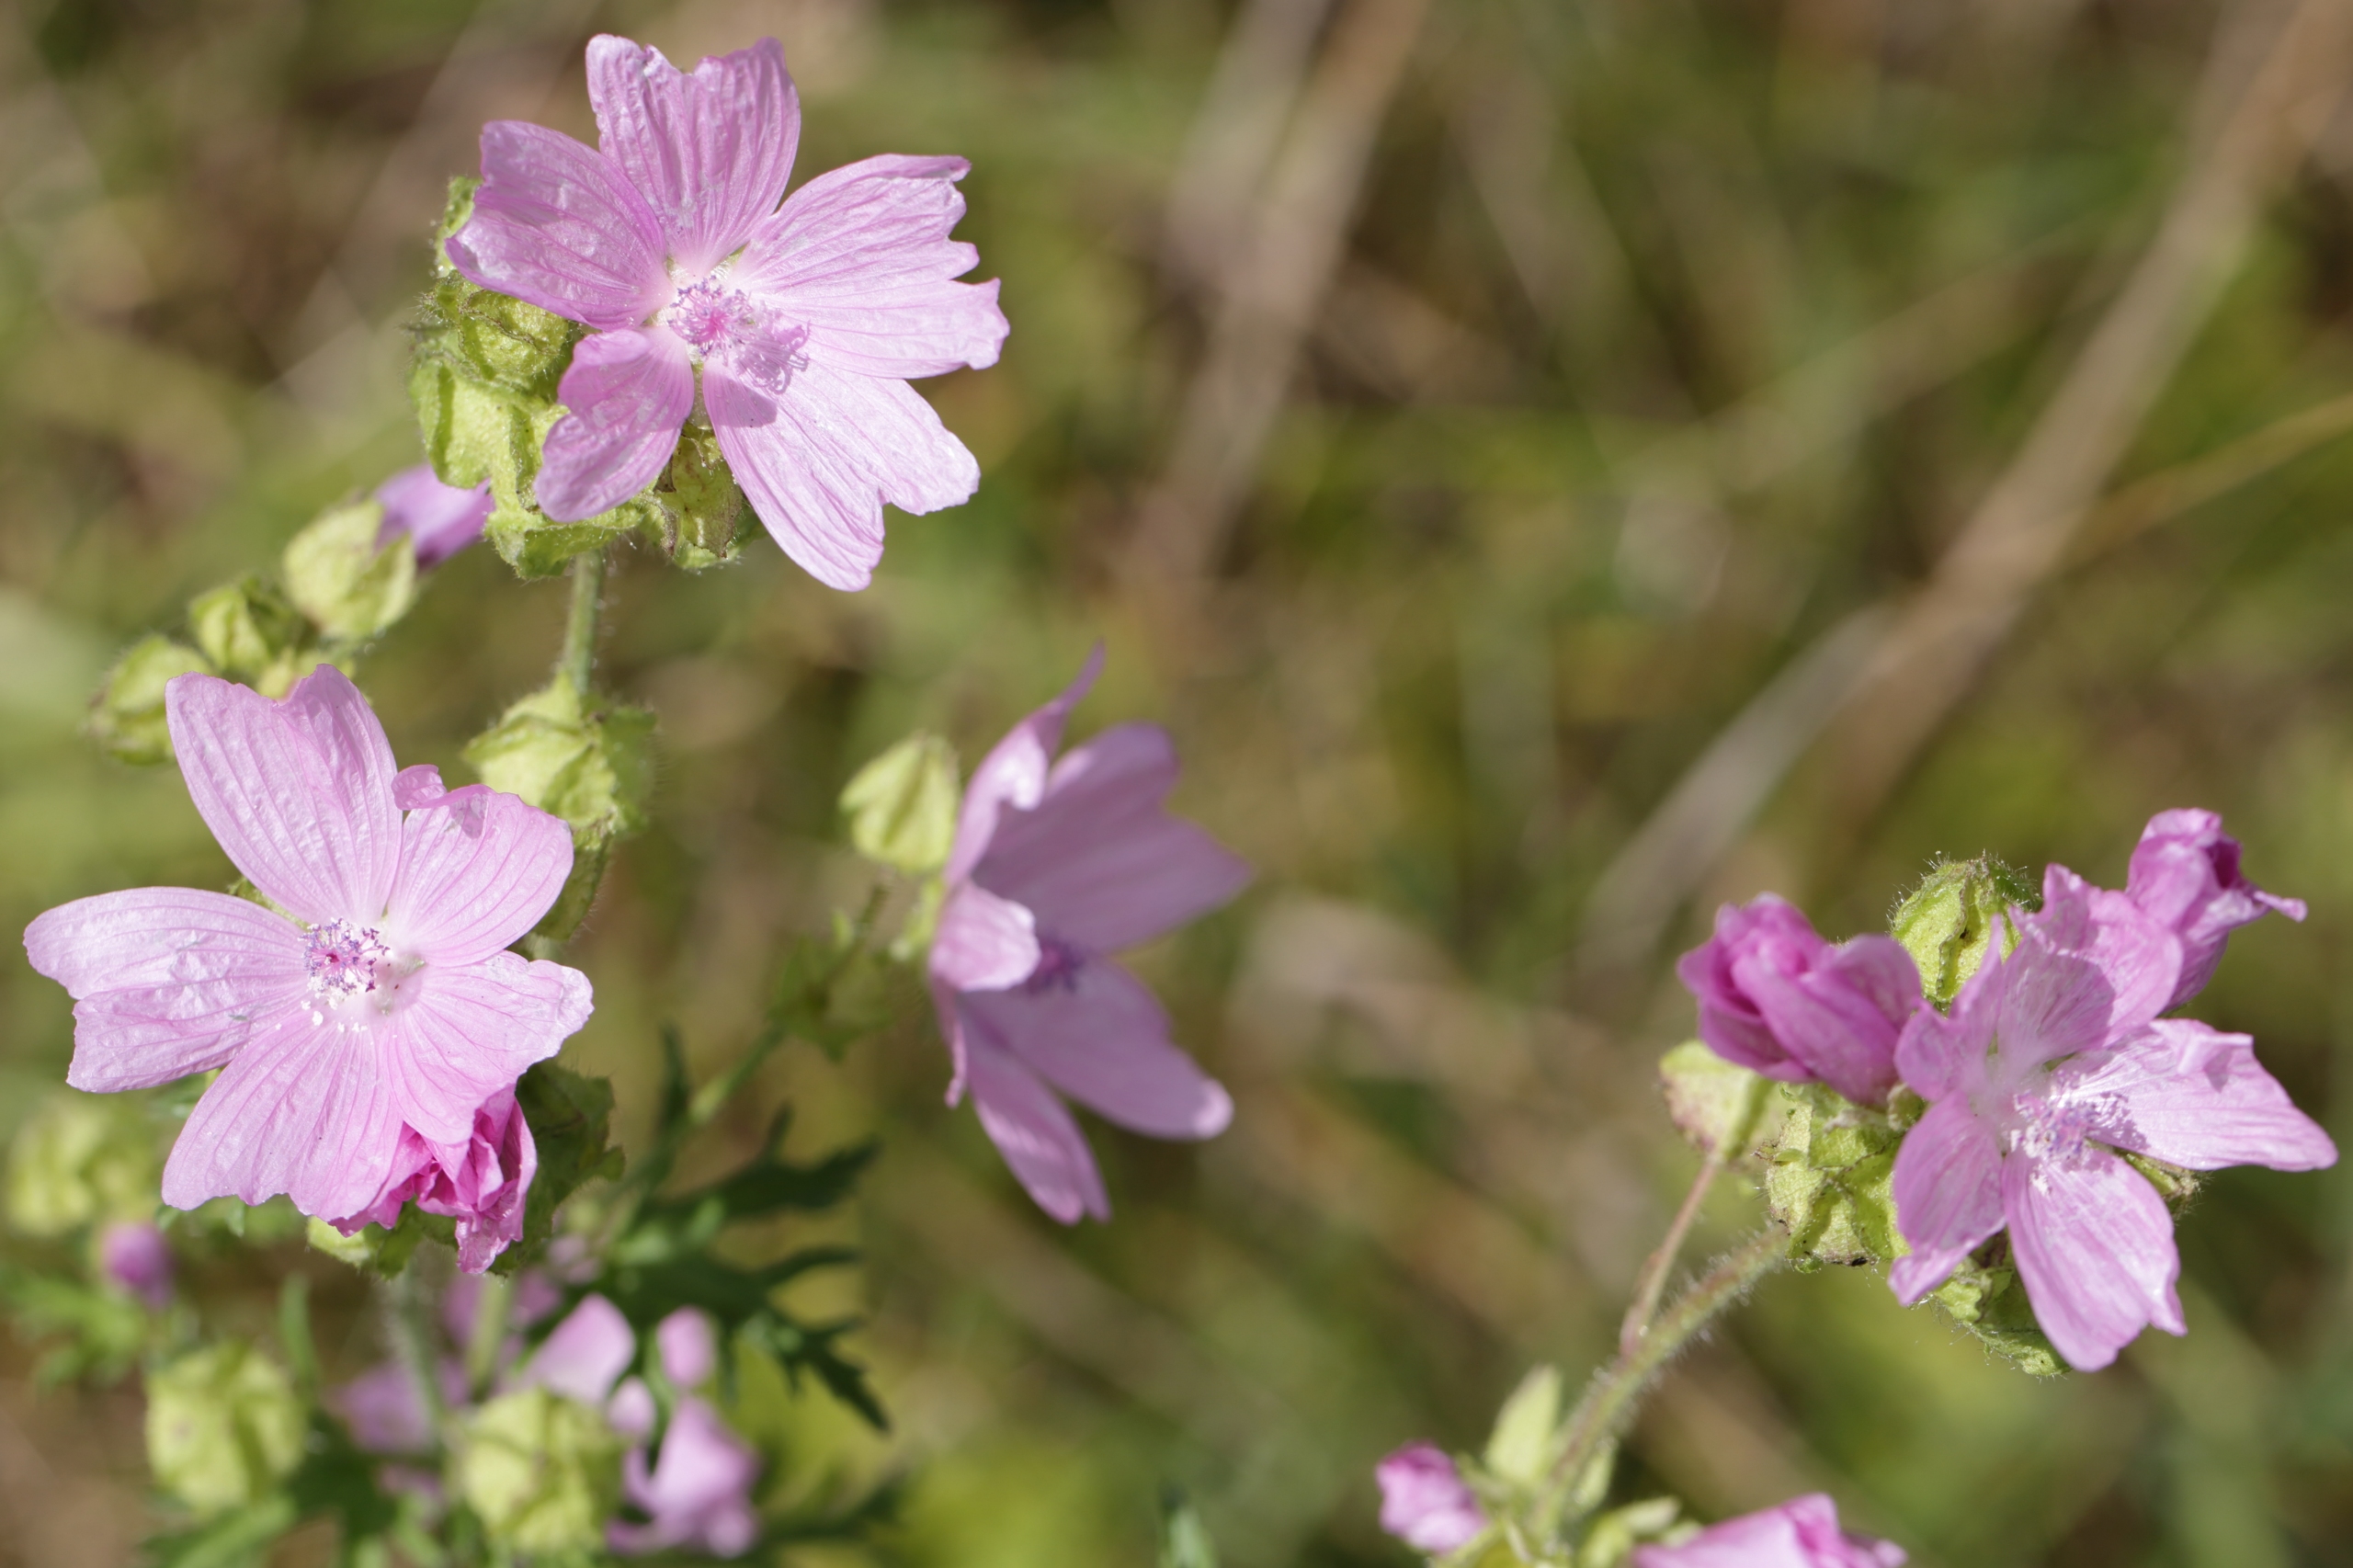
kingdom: Plantae
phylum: Tracheophyta
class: Magnoliopsida
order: Malvales
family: Malvaceae
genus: Malva
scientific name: Malva moschata
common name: Moskus-katost
